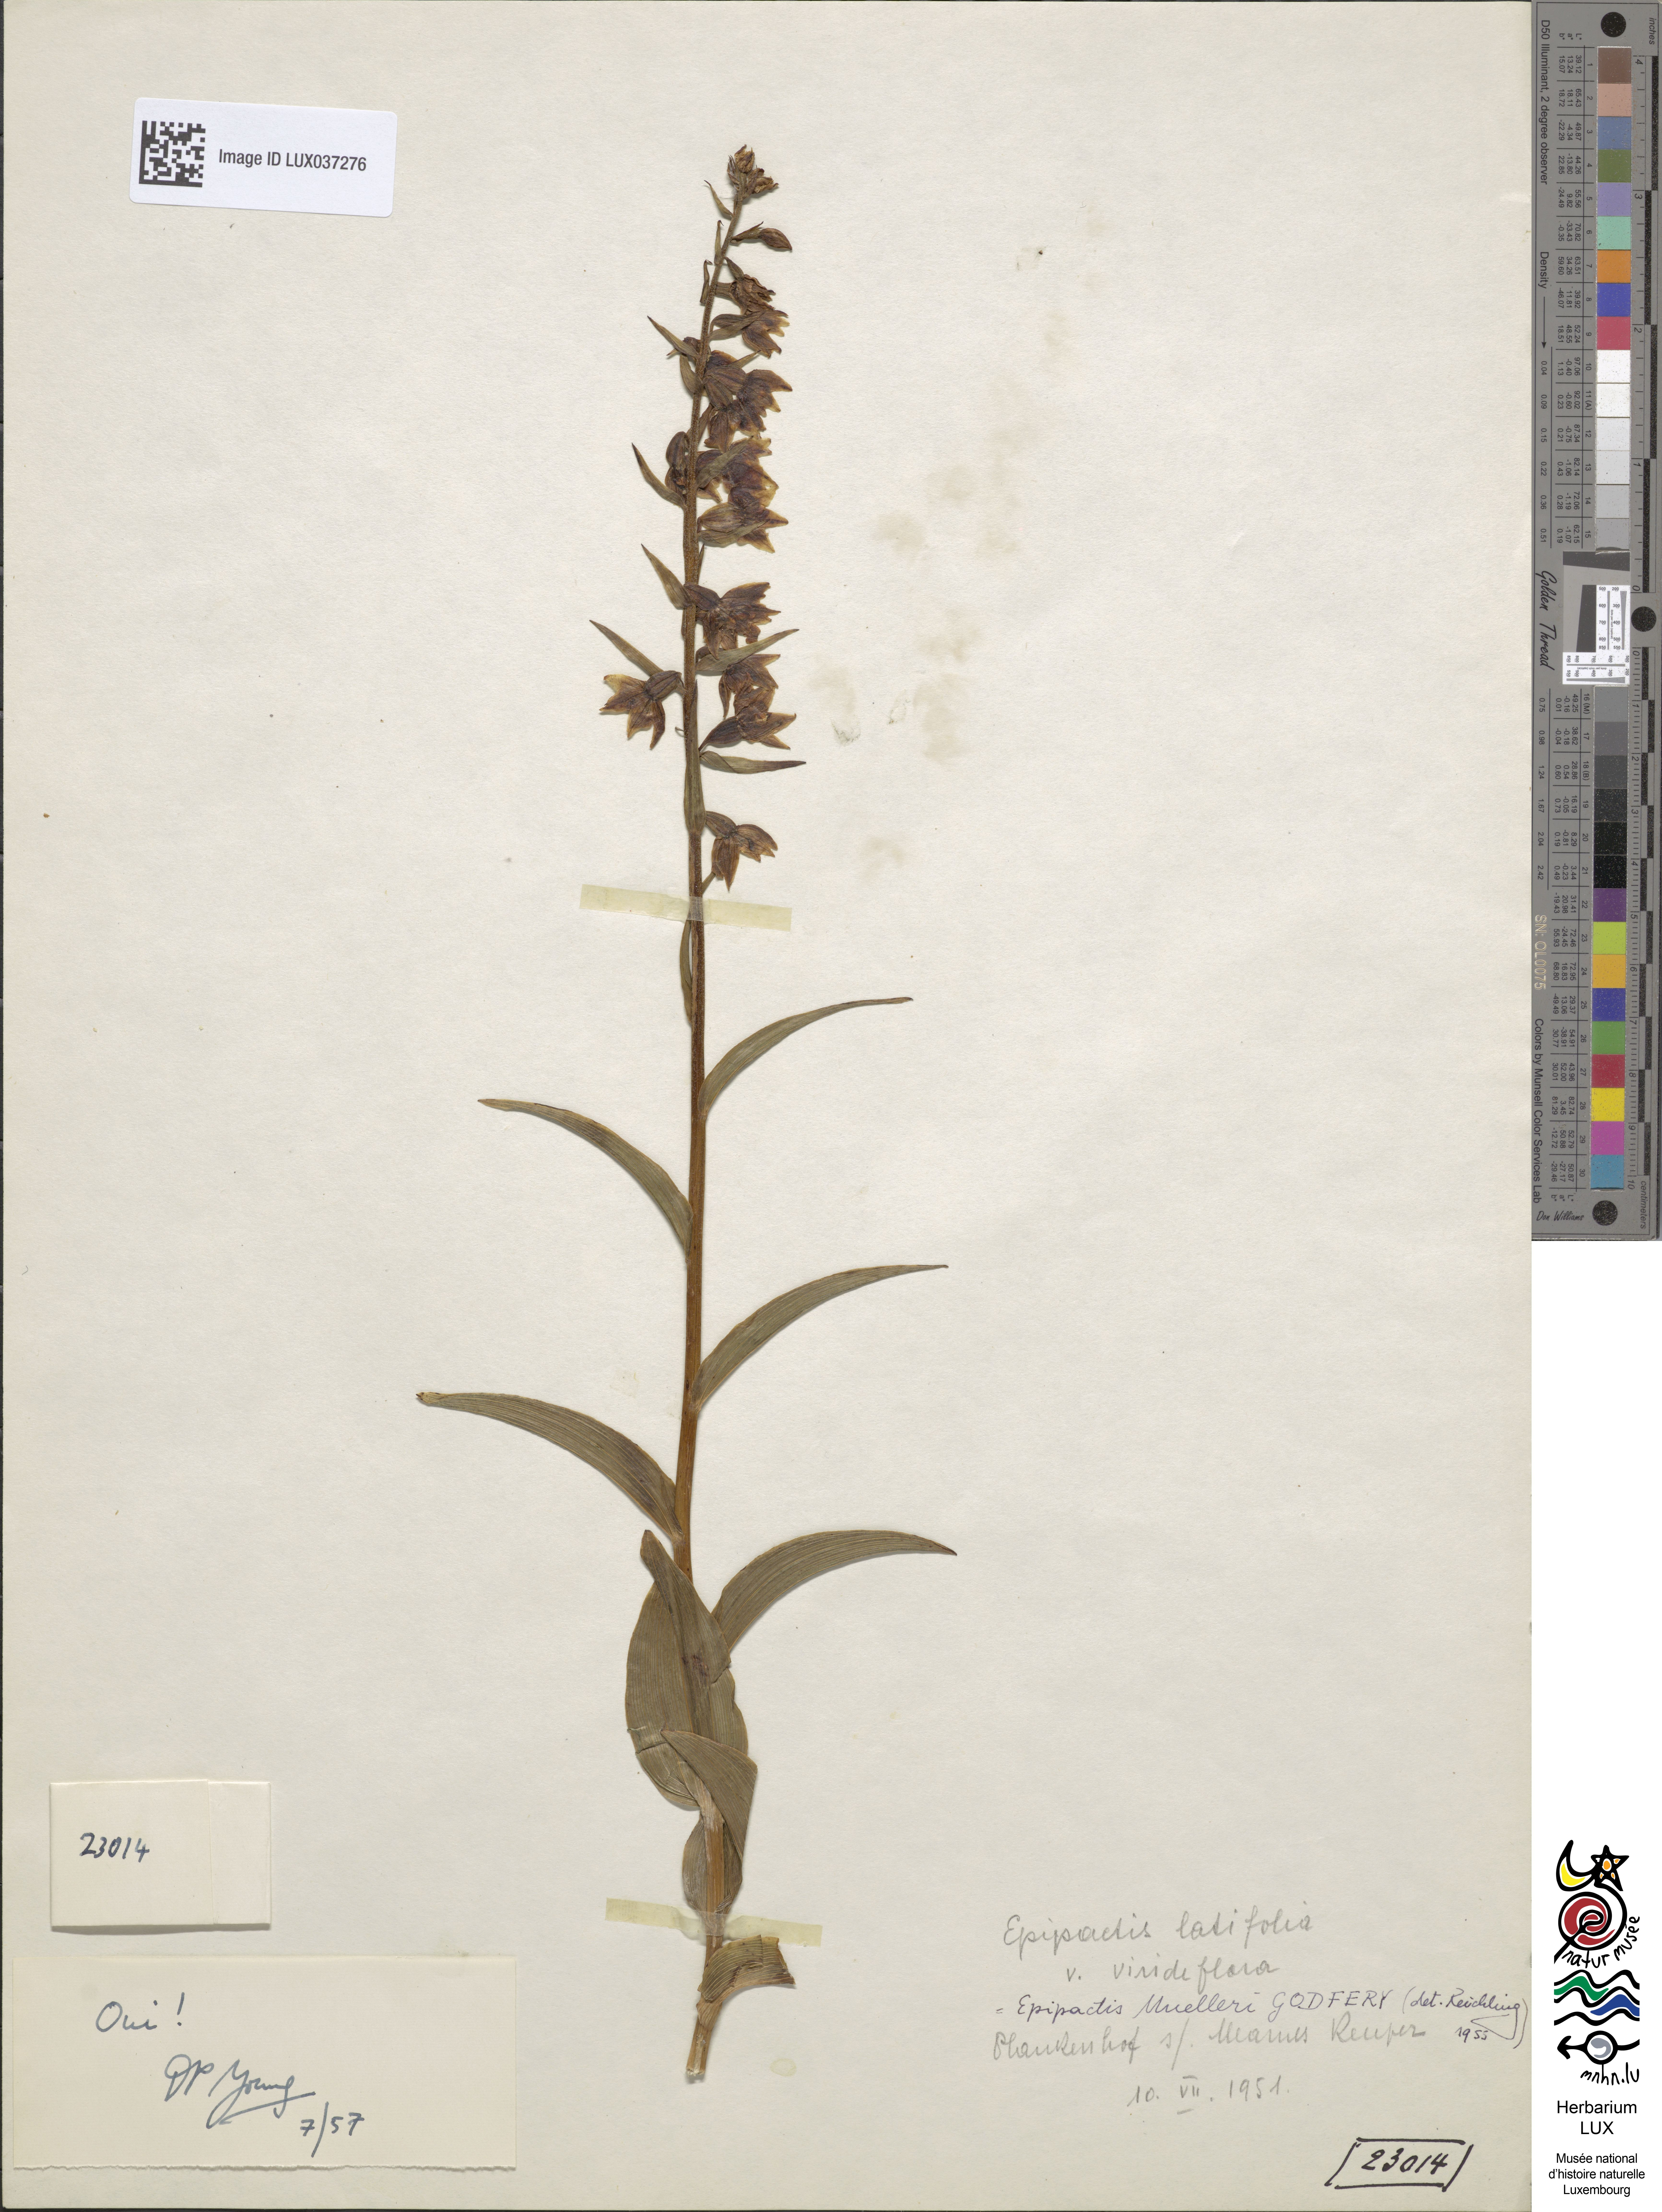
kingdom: Plantae
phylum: Tracheophyta
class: Liliopsida
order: Asparagales
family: Orchidaceae
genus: Epipactis
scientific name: Epipactis muelleri
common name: Mueller's epipactis
